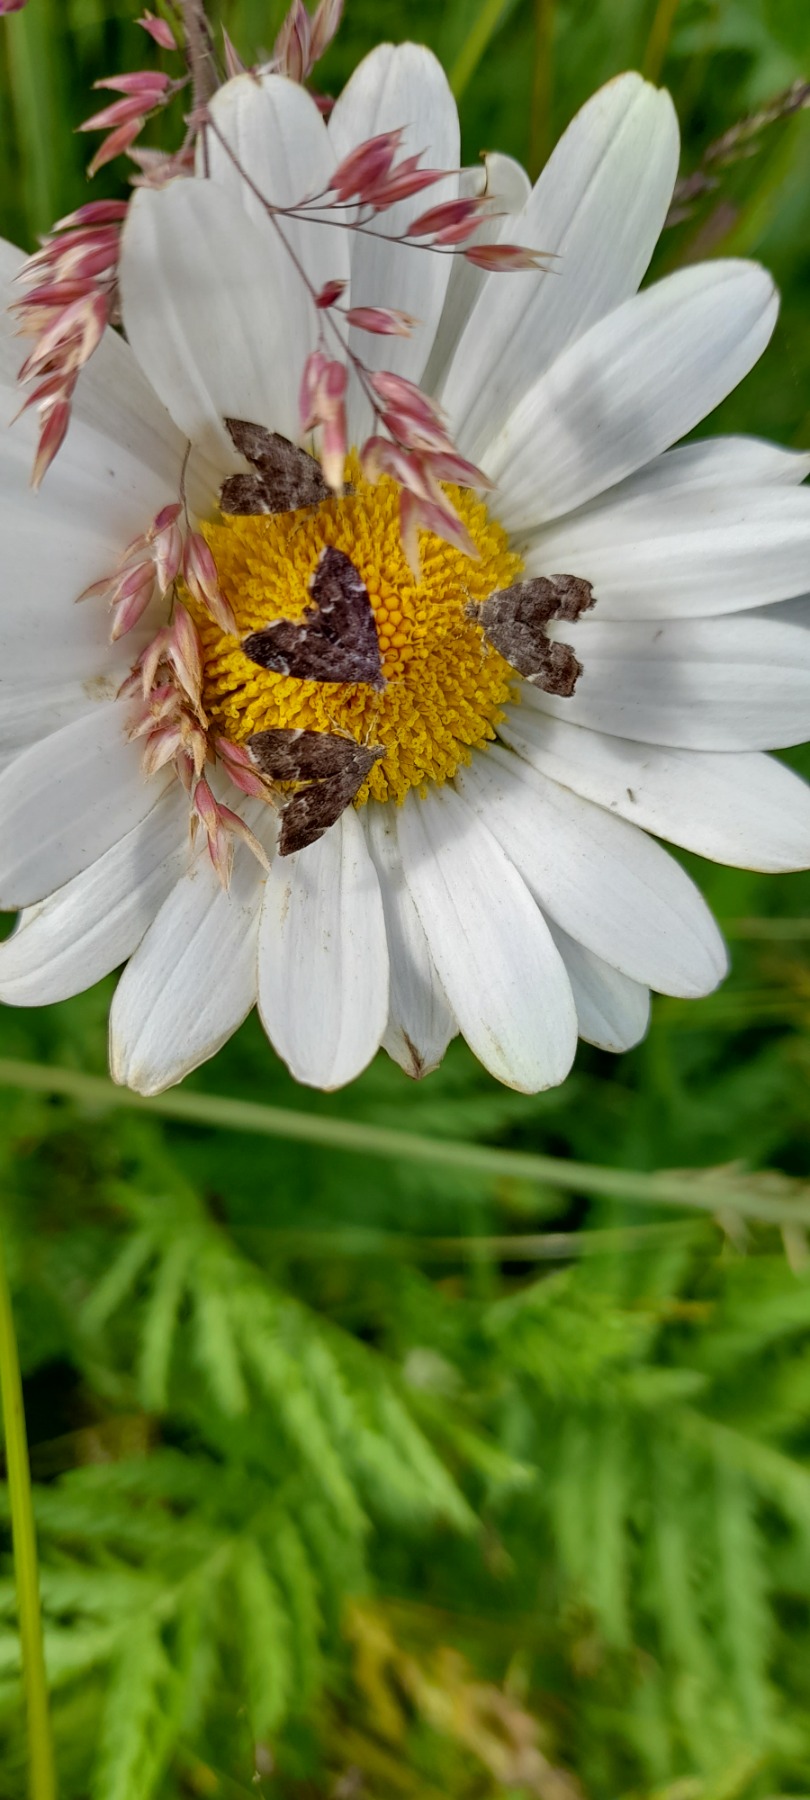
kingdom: Animalia
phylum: Arthropoda
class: Insecta
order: Lepidoptera
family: Choreutidae
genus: Anthophila
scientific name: Anthophila fabriciana
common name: Bredvinget nældevikler
